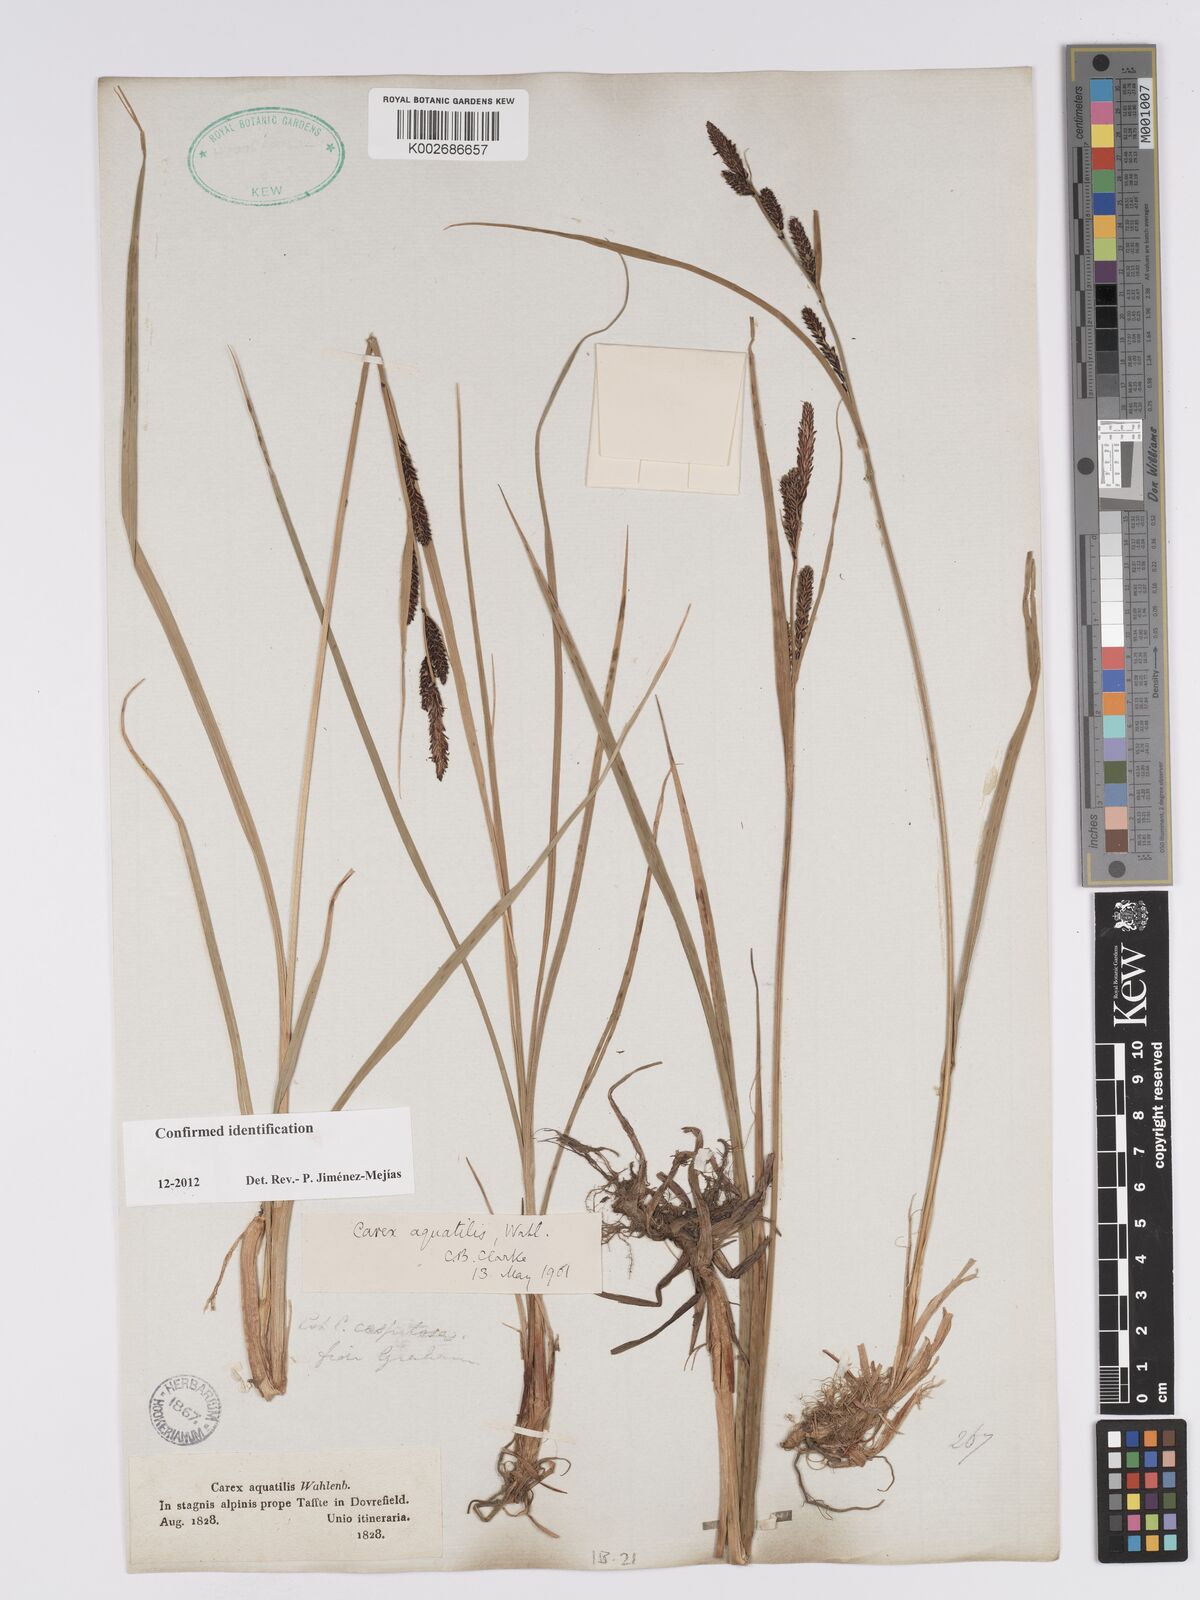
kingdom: Plantae
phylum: Tracheophyta
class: Liliopsida
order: Poales
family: Cyperaceae
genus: Carex
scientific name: Carex aquatilis
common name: Water sedge
